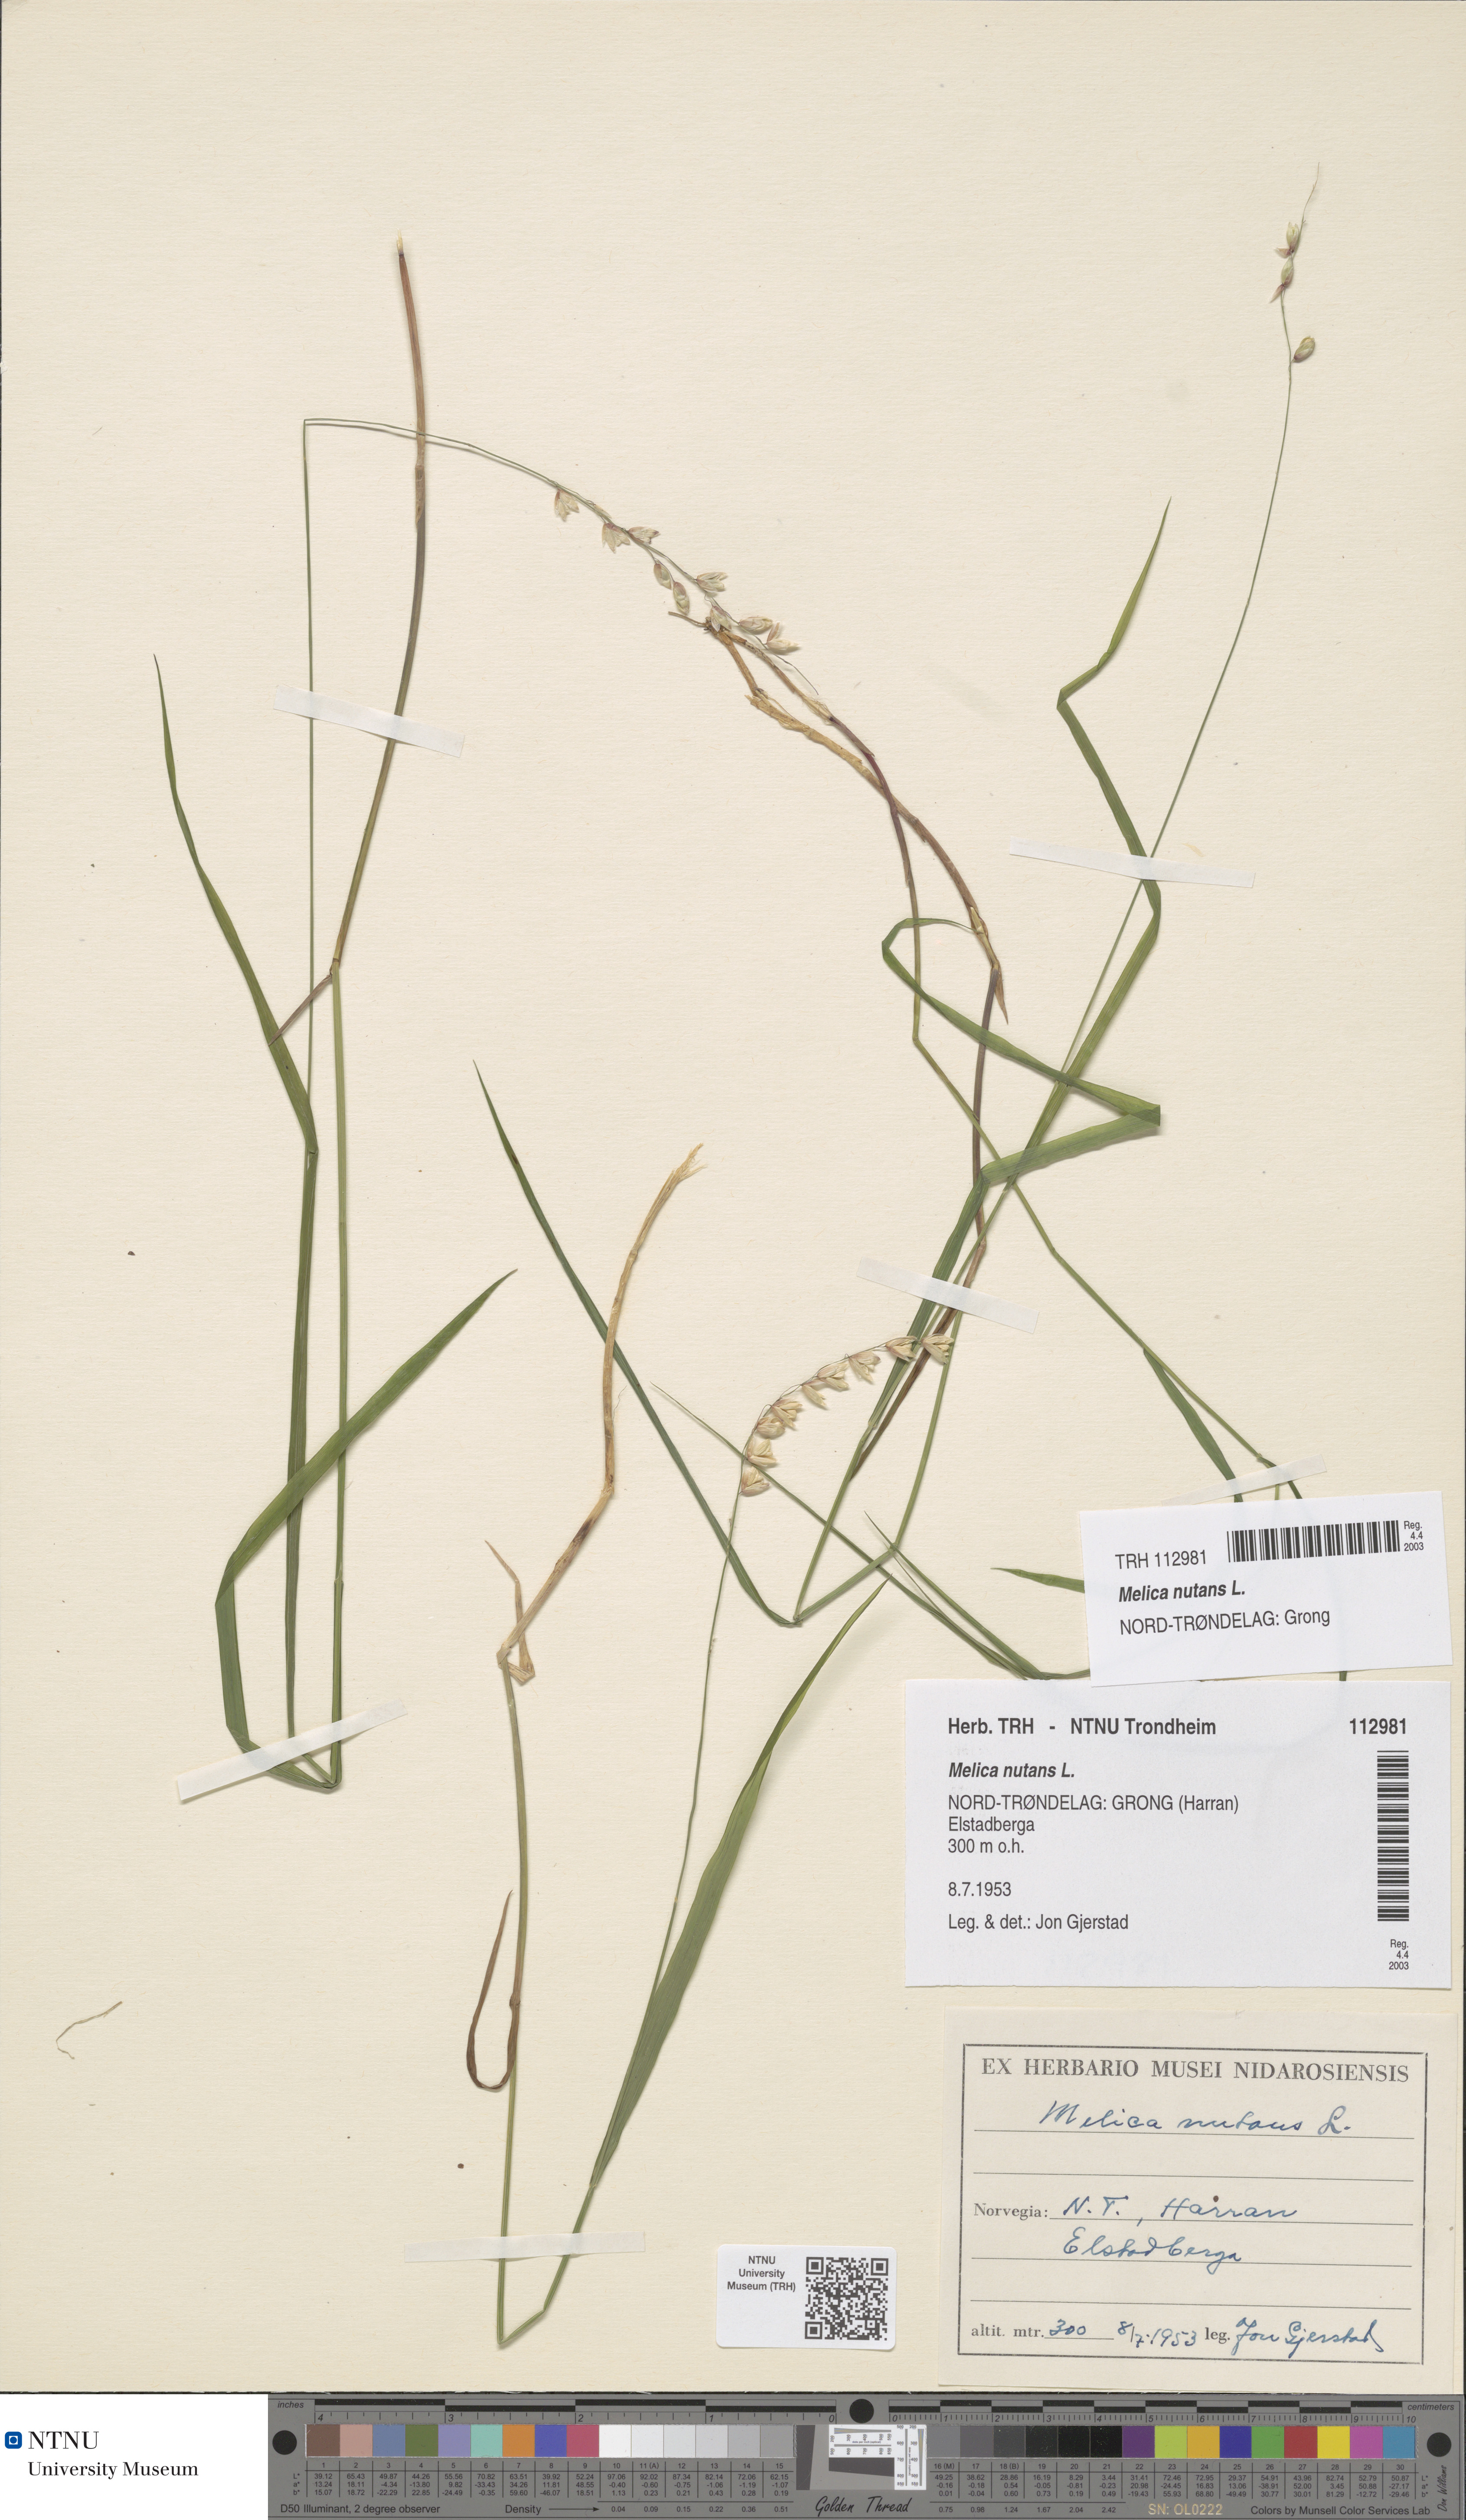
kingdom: Plantae
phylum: Tracheophyta
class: Liliopsida
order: Poales
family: Poaceae
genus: Melica
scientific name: Melica nutans
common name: Mountain melick
